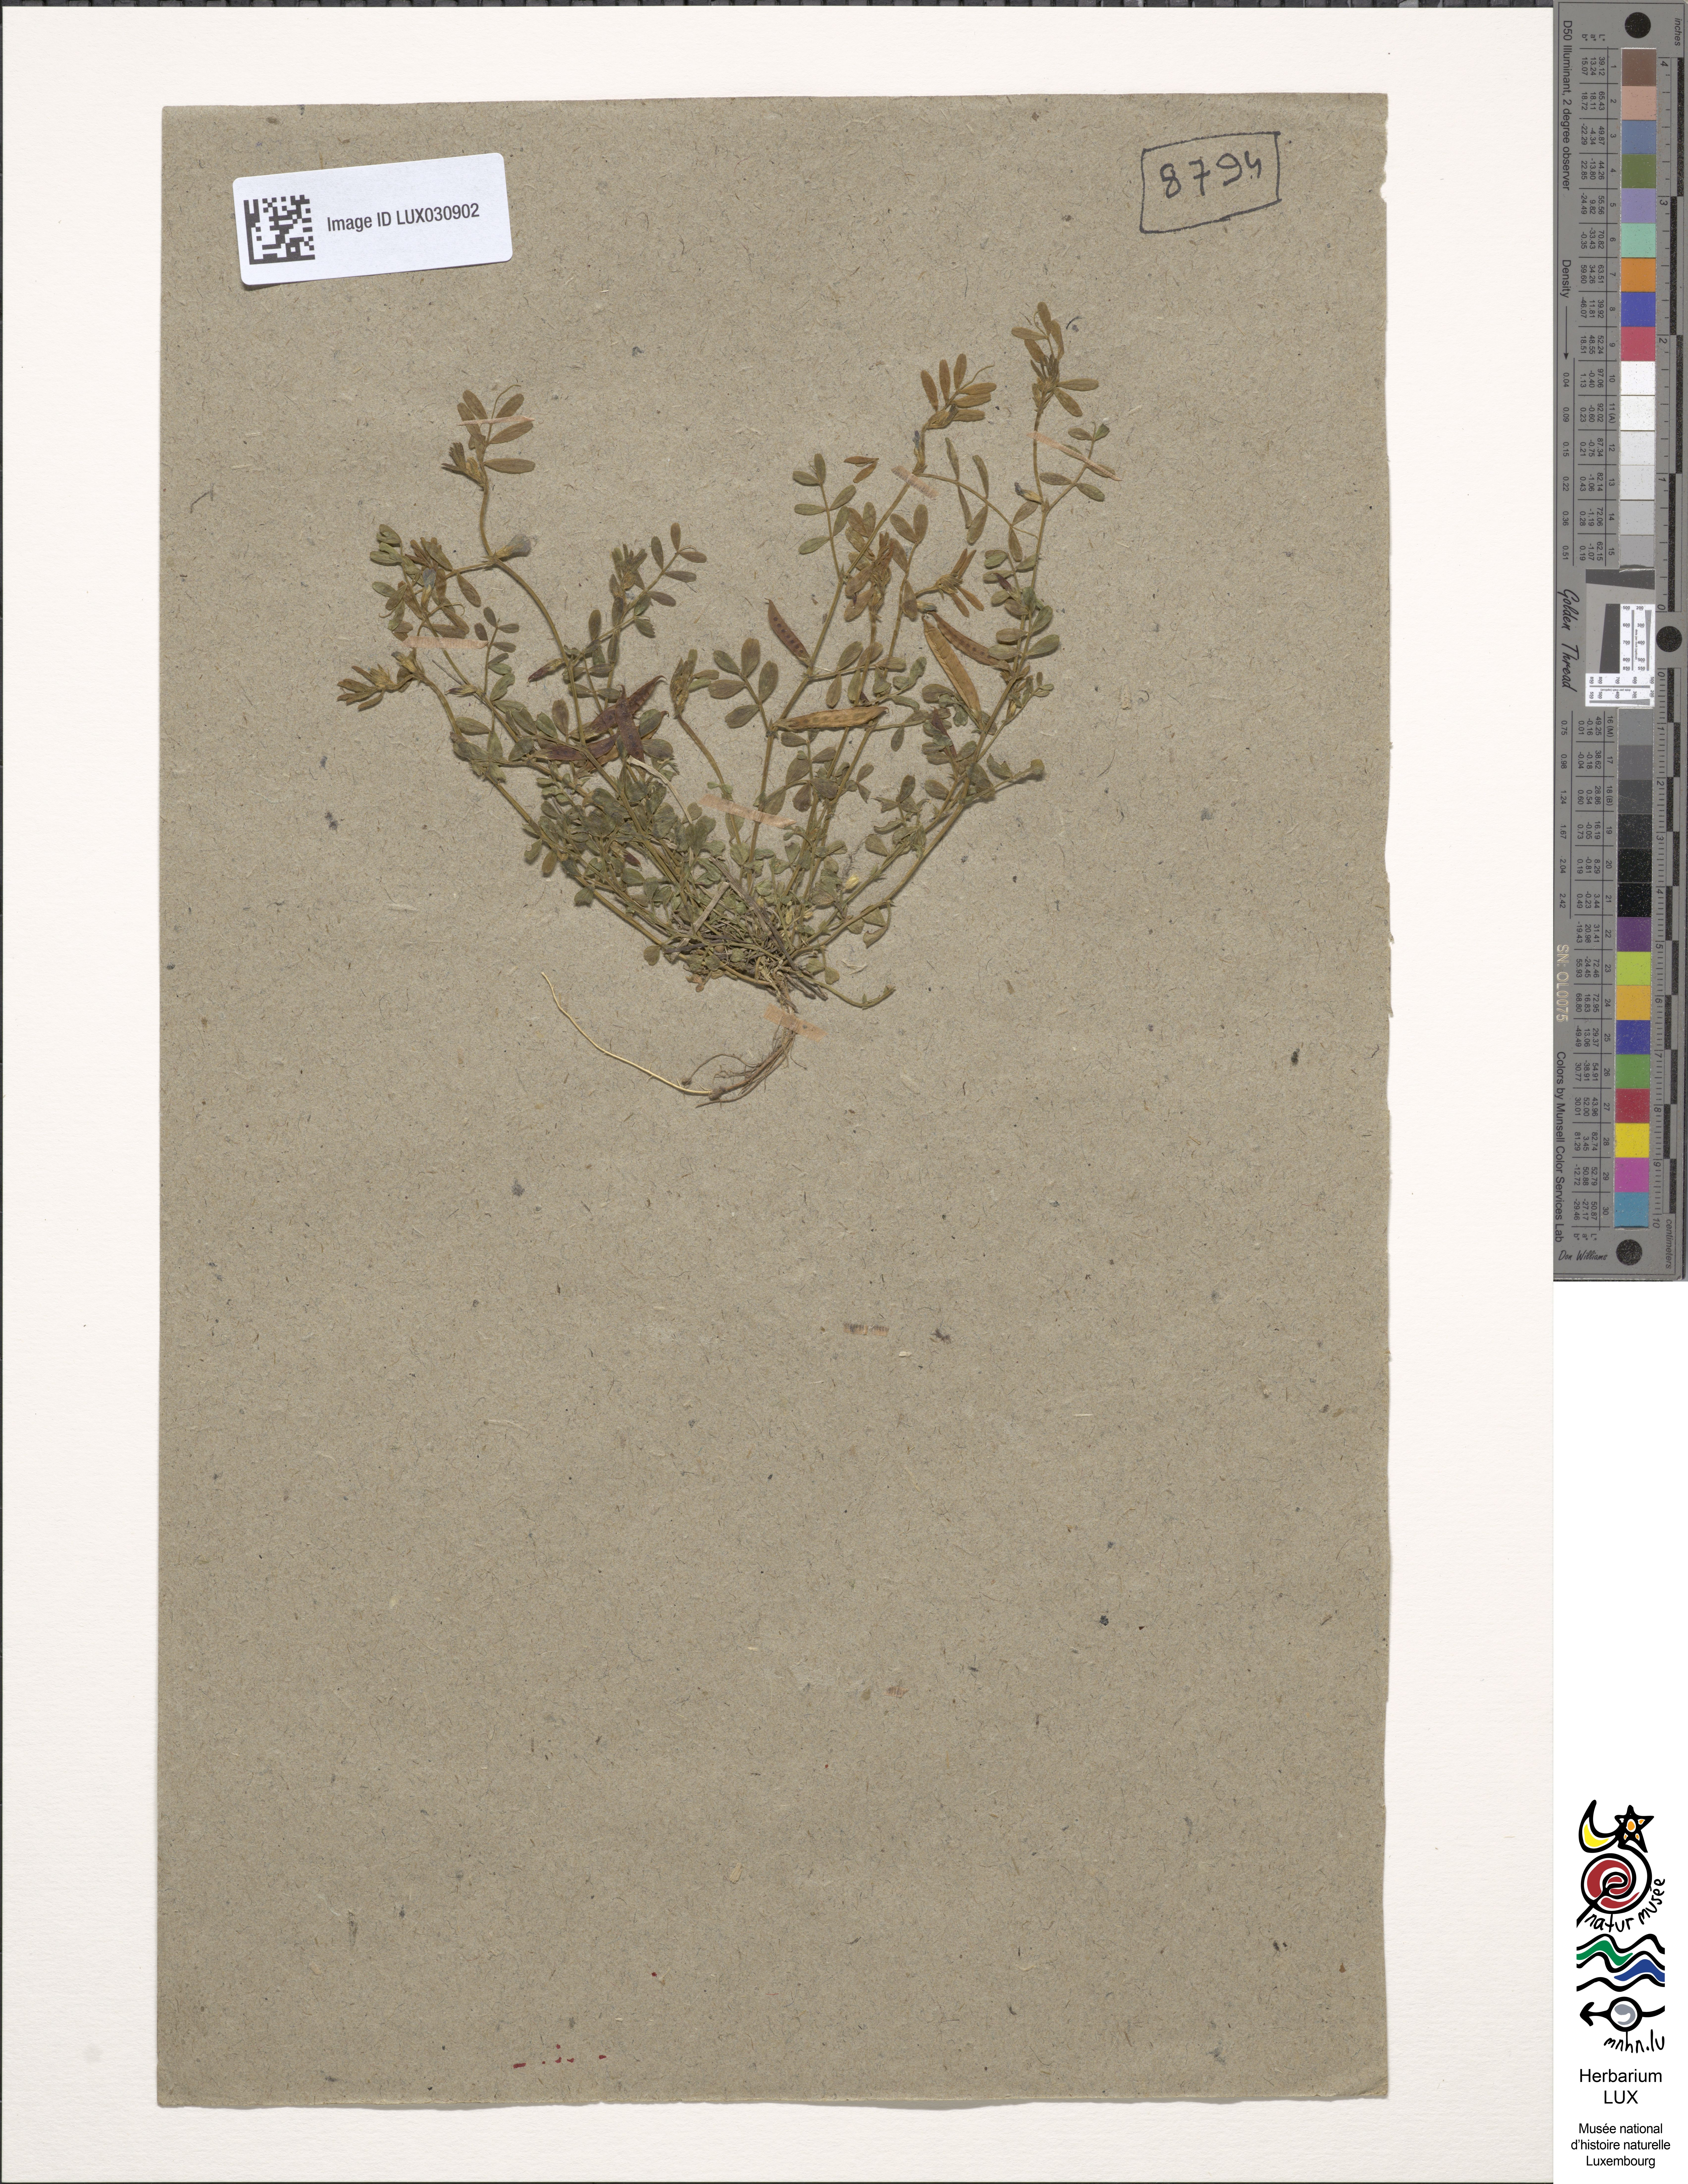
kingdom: Plantae
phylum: Tracheophyta
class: Magnoliopsida
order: Fabales
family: Fabaceae
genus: Vicia
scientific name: Vicia lathyroides
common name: Spring vetch
